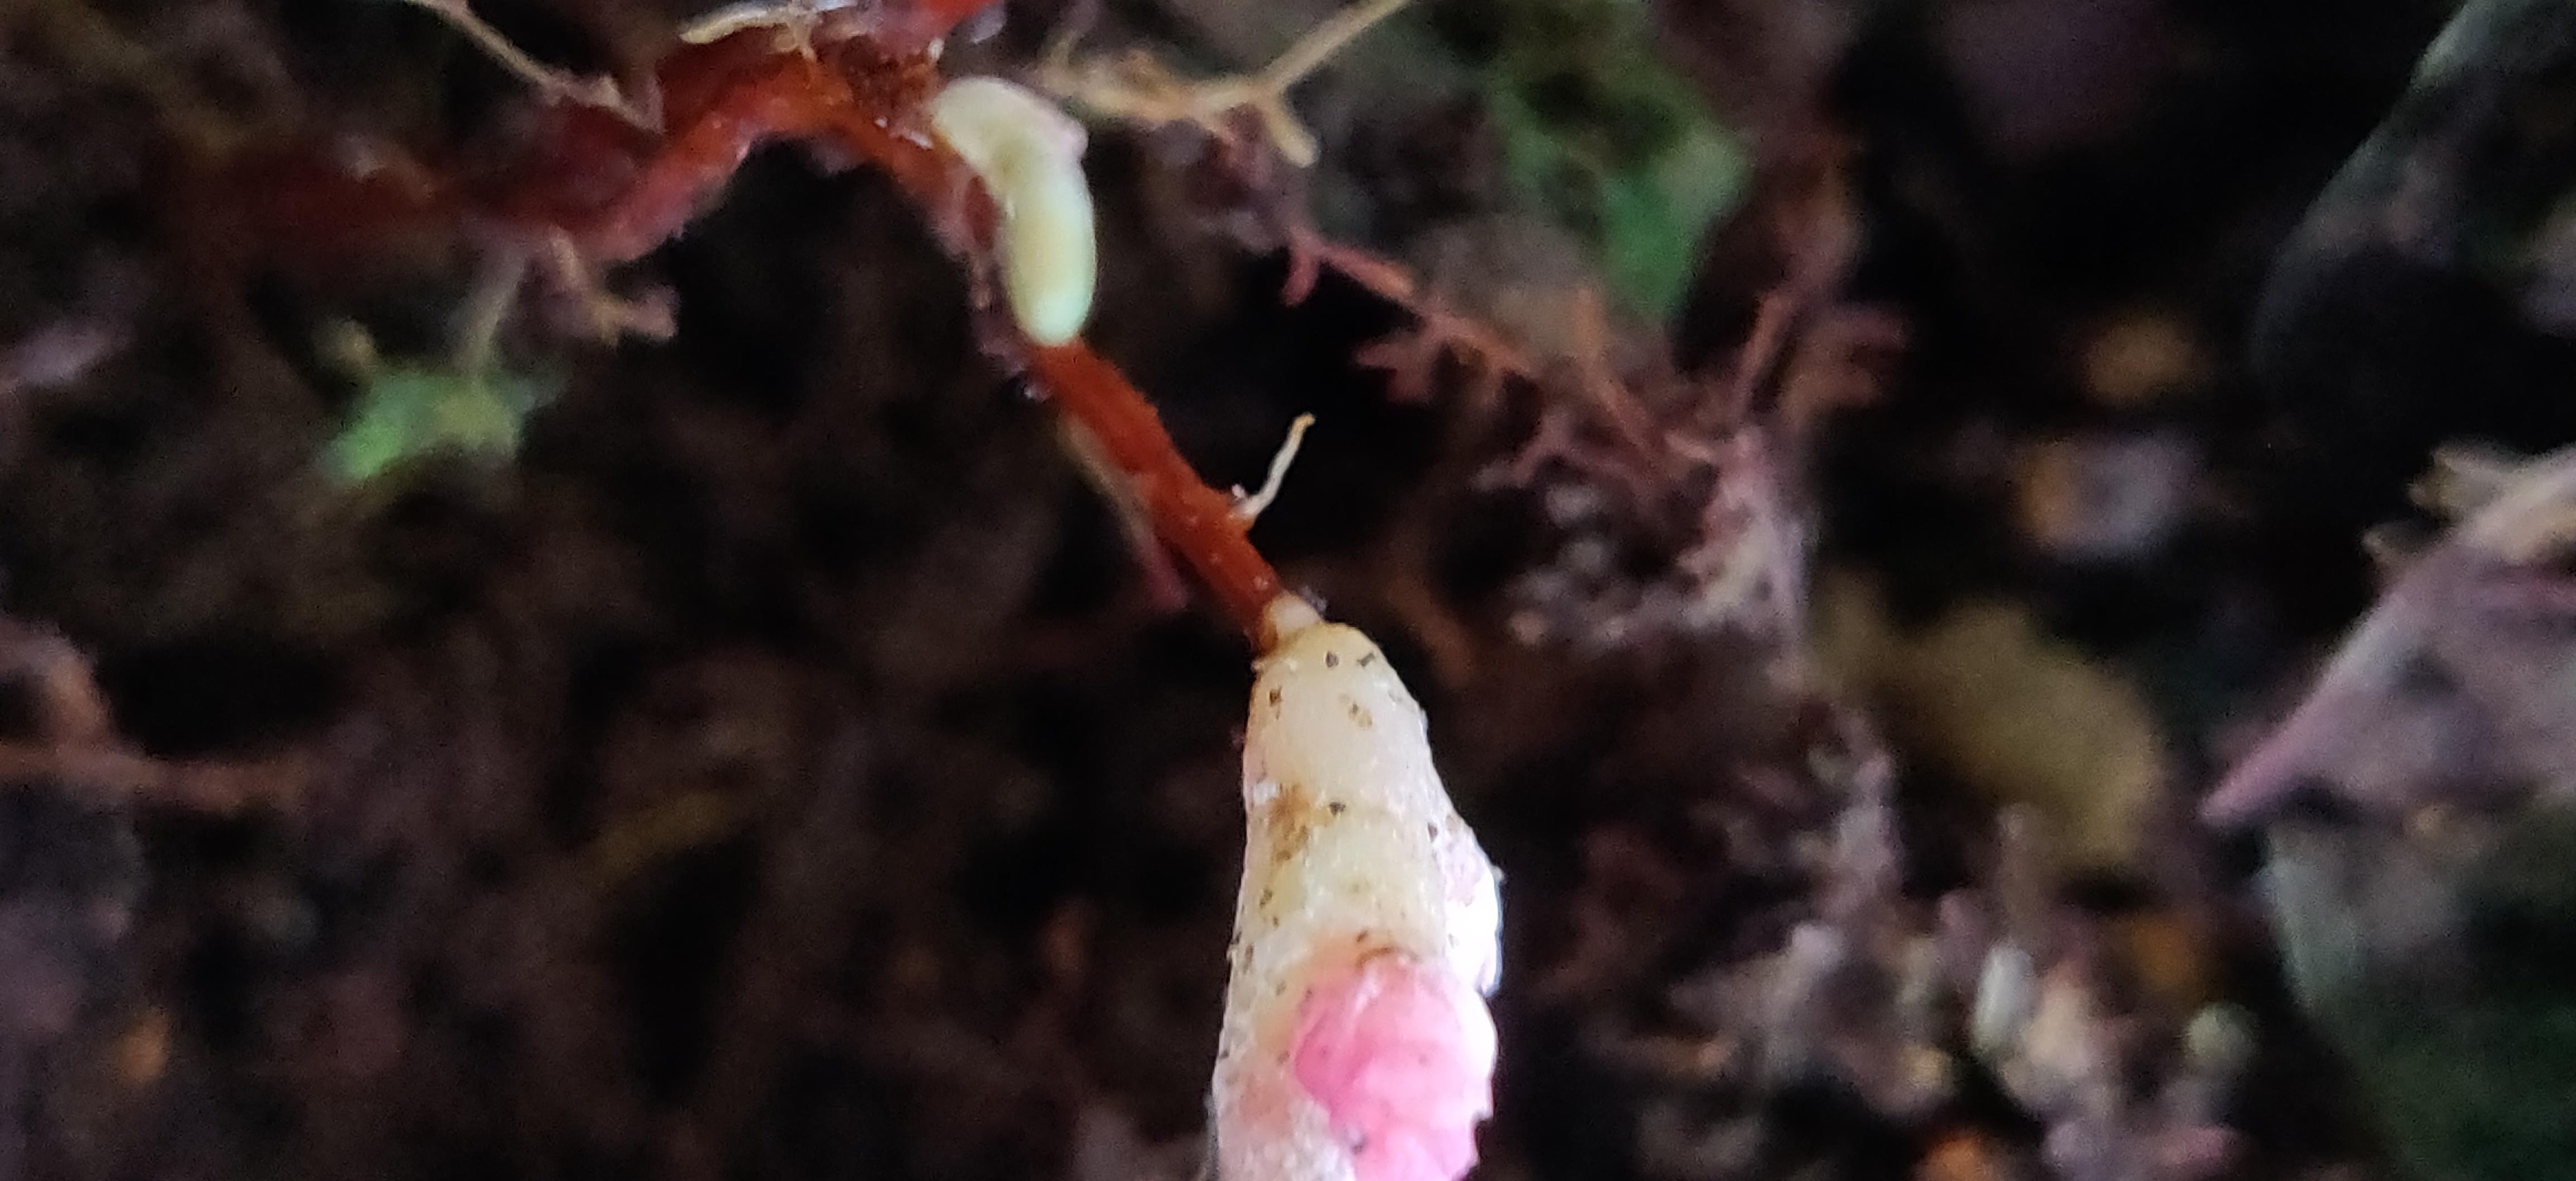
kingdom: Fungi
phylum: Basidiomycota
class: Exobasidiomycetes
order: Exobasidiales
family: Exobasidiaceae
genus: Exobasidium
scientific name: Exobasidium
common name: bøllesvamp
